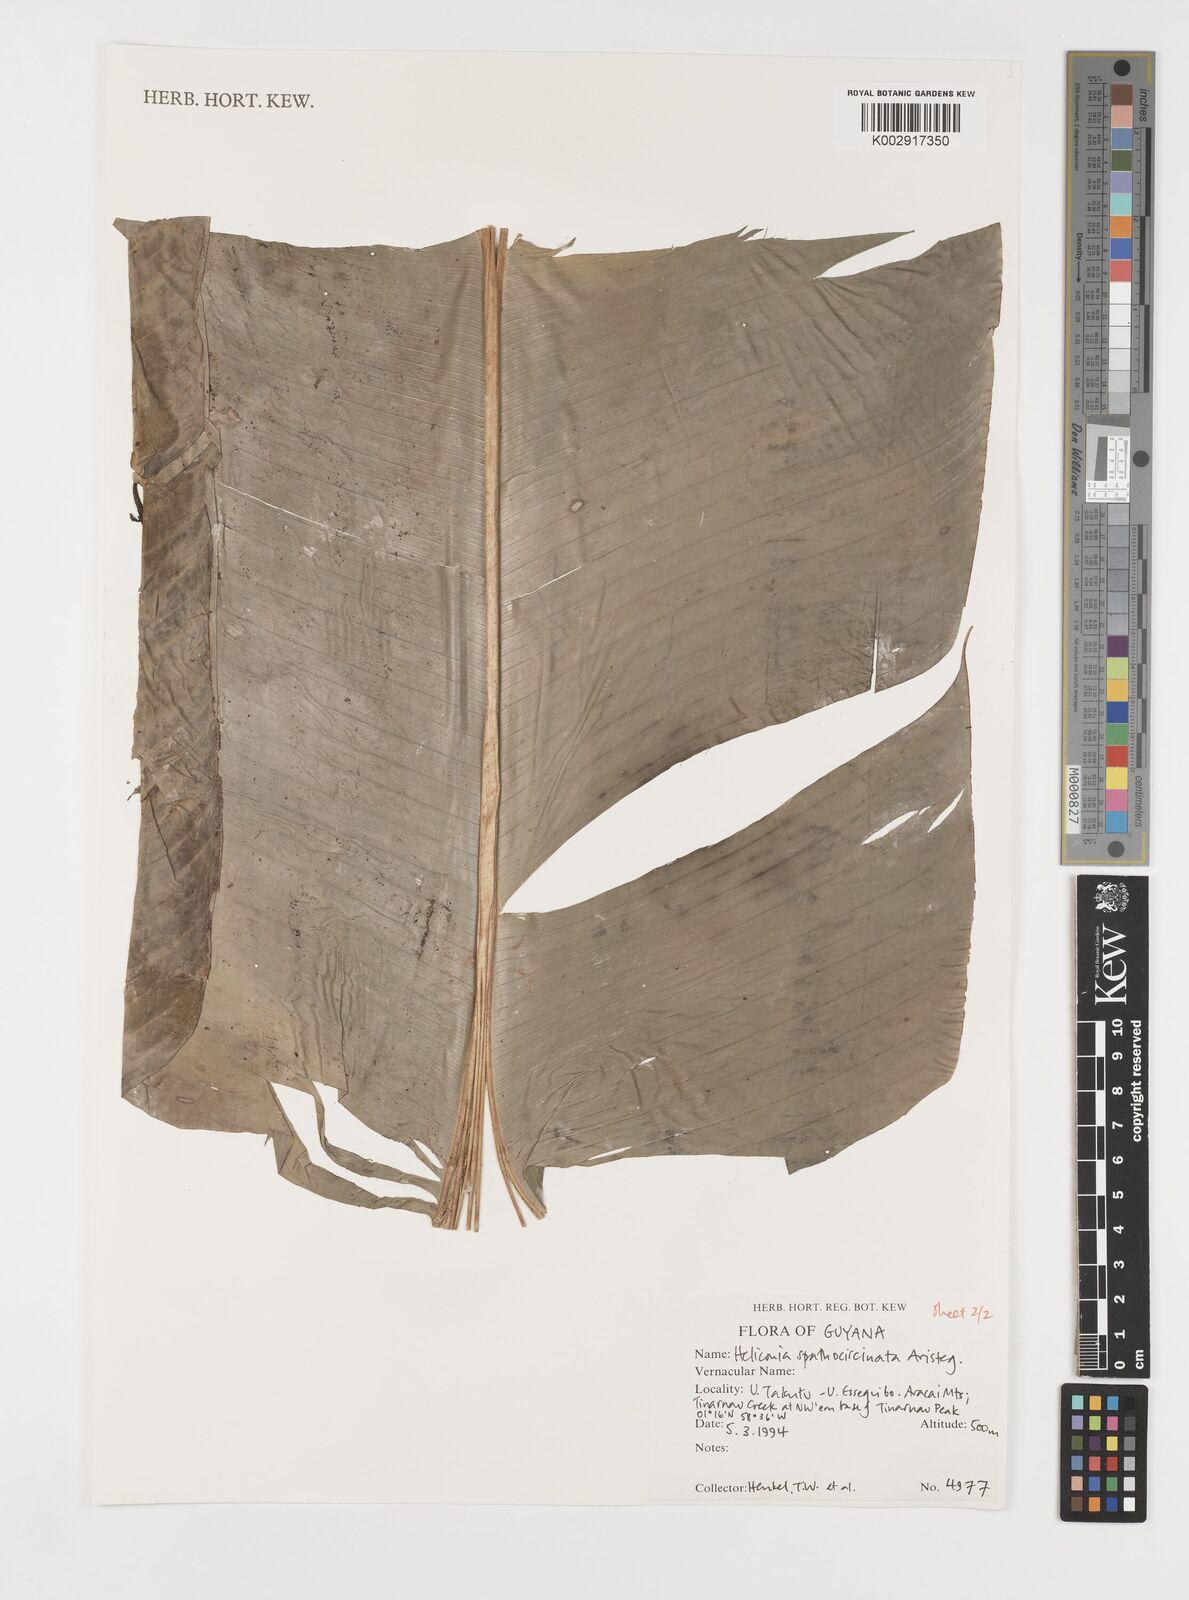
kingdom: Plantae
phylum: Tracheophyta
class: Liliopsida
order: Zingiberales
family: Heliconiaceae
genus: Heliconia
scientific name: Heliconia spathocircinata
